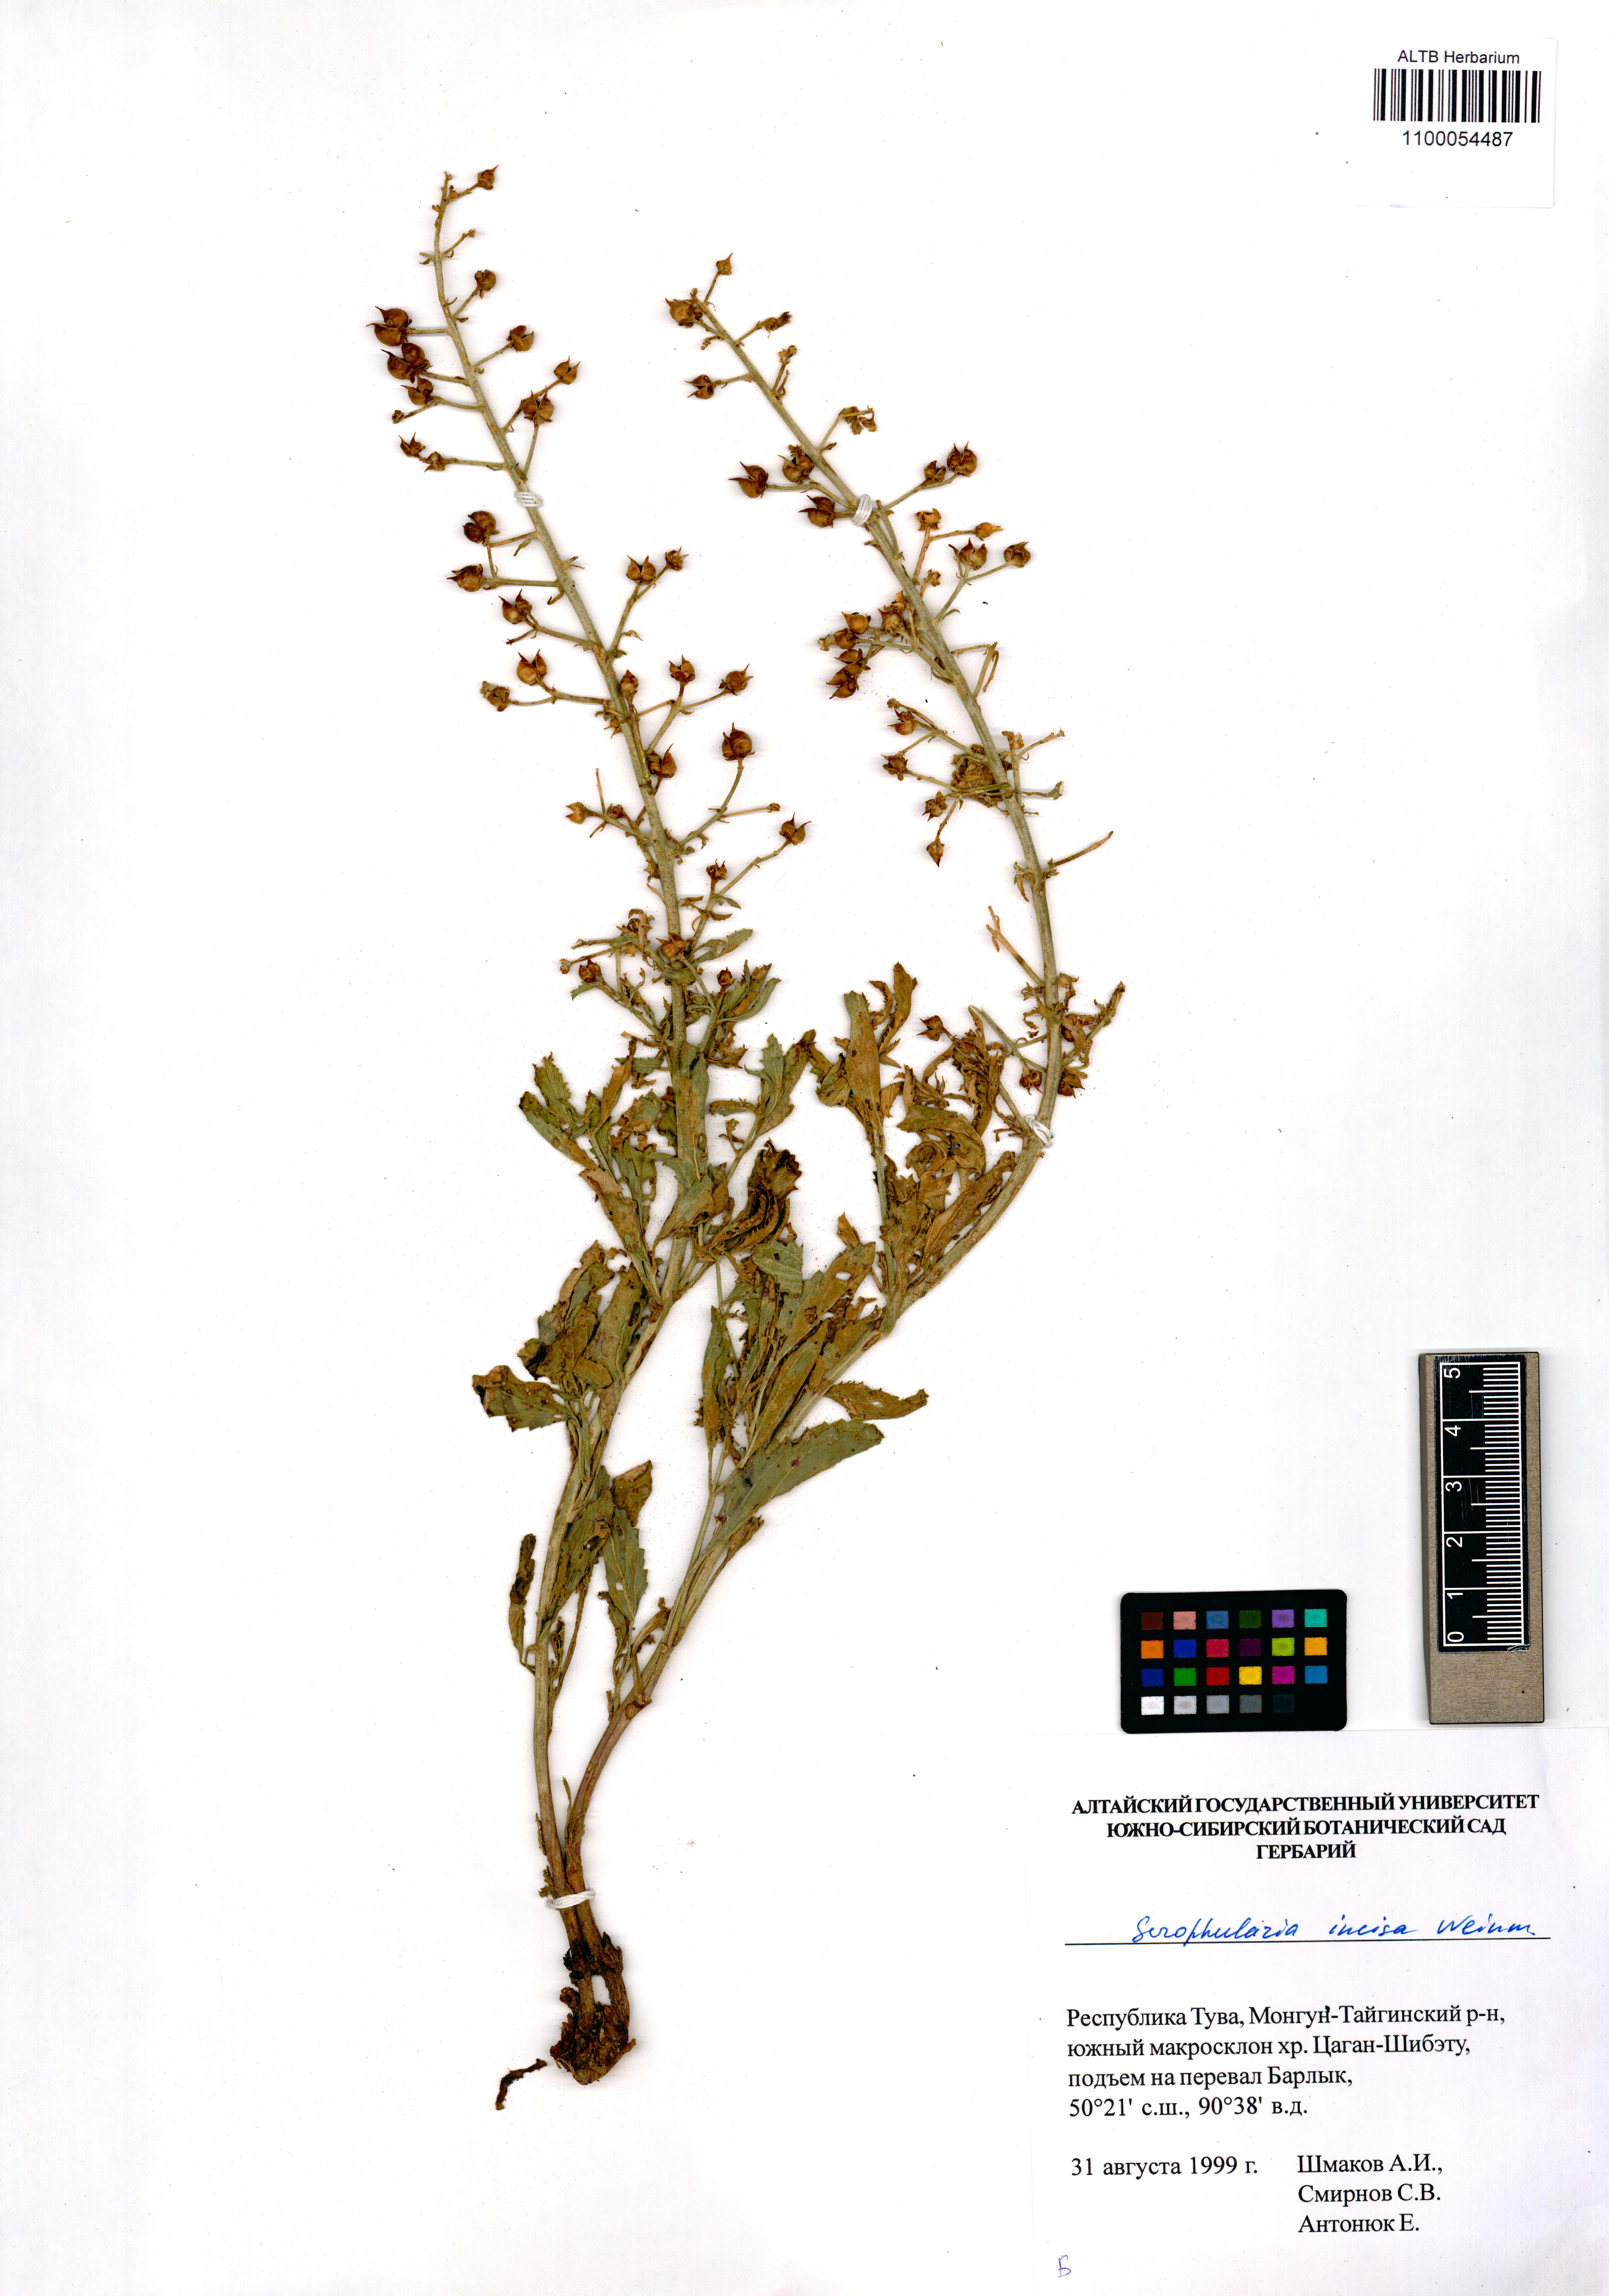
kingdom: Plantae
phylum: Tracheophyta
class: Magnoliopsida
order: Lamiales
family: Scrophulariaceae
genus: Scrophularia
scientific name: Scrophularia incisa
